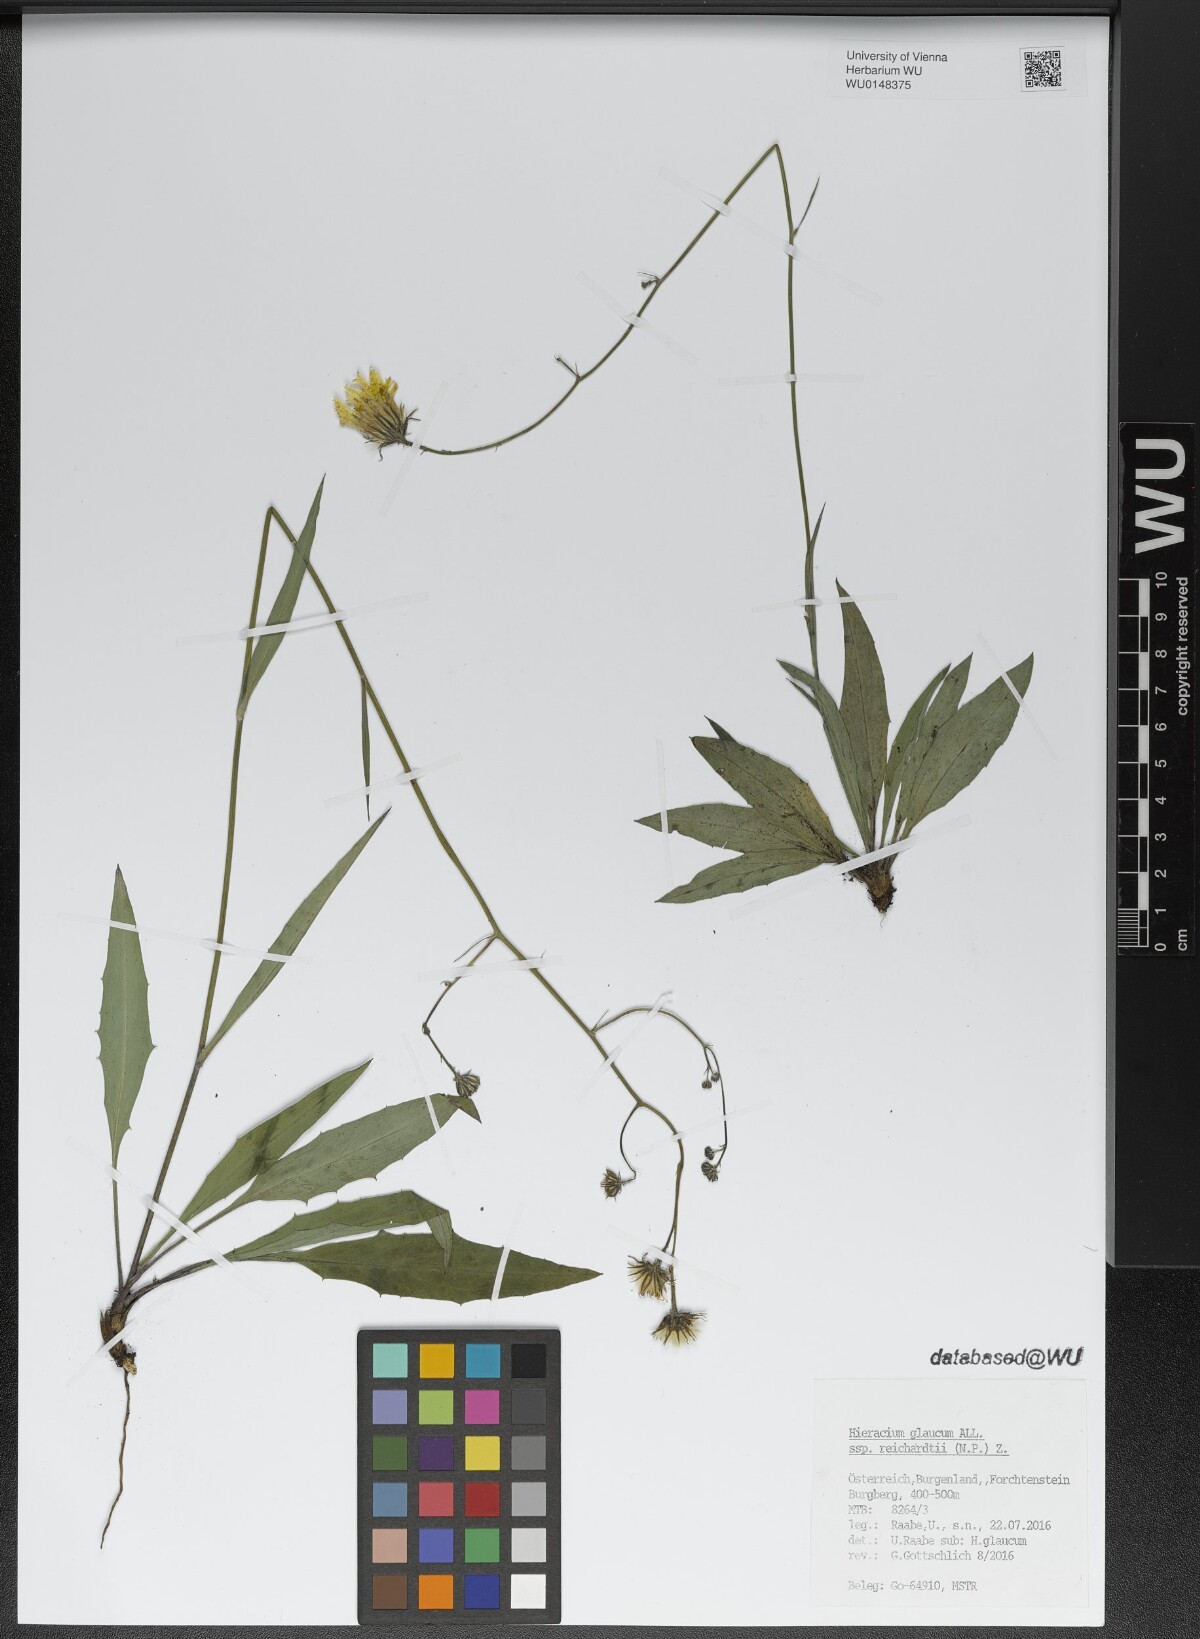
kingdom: Plantae
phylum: Tracheophyta
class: Magnoliopsida
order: Asterales
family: Asteraceae
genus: Hieracium
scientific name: Hieracium glaucum
